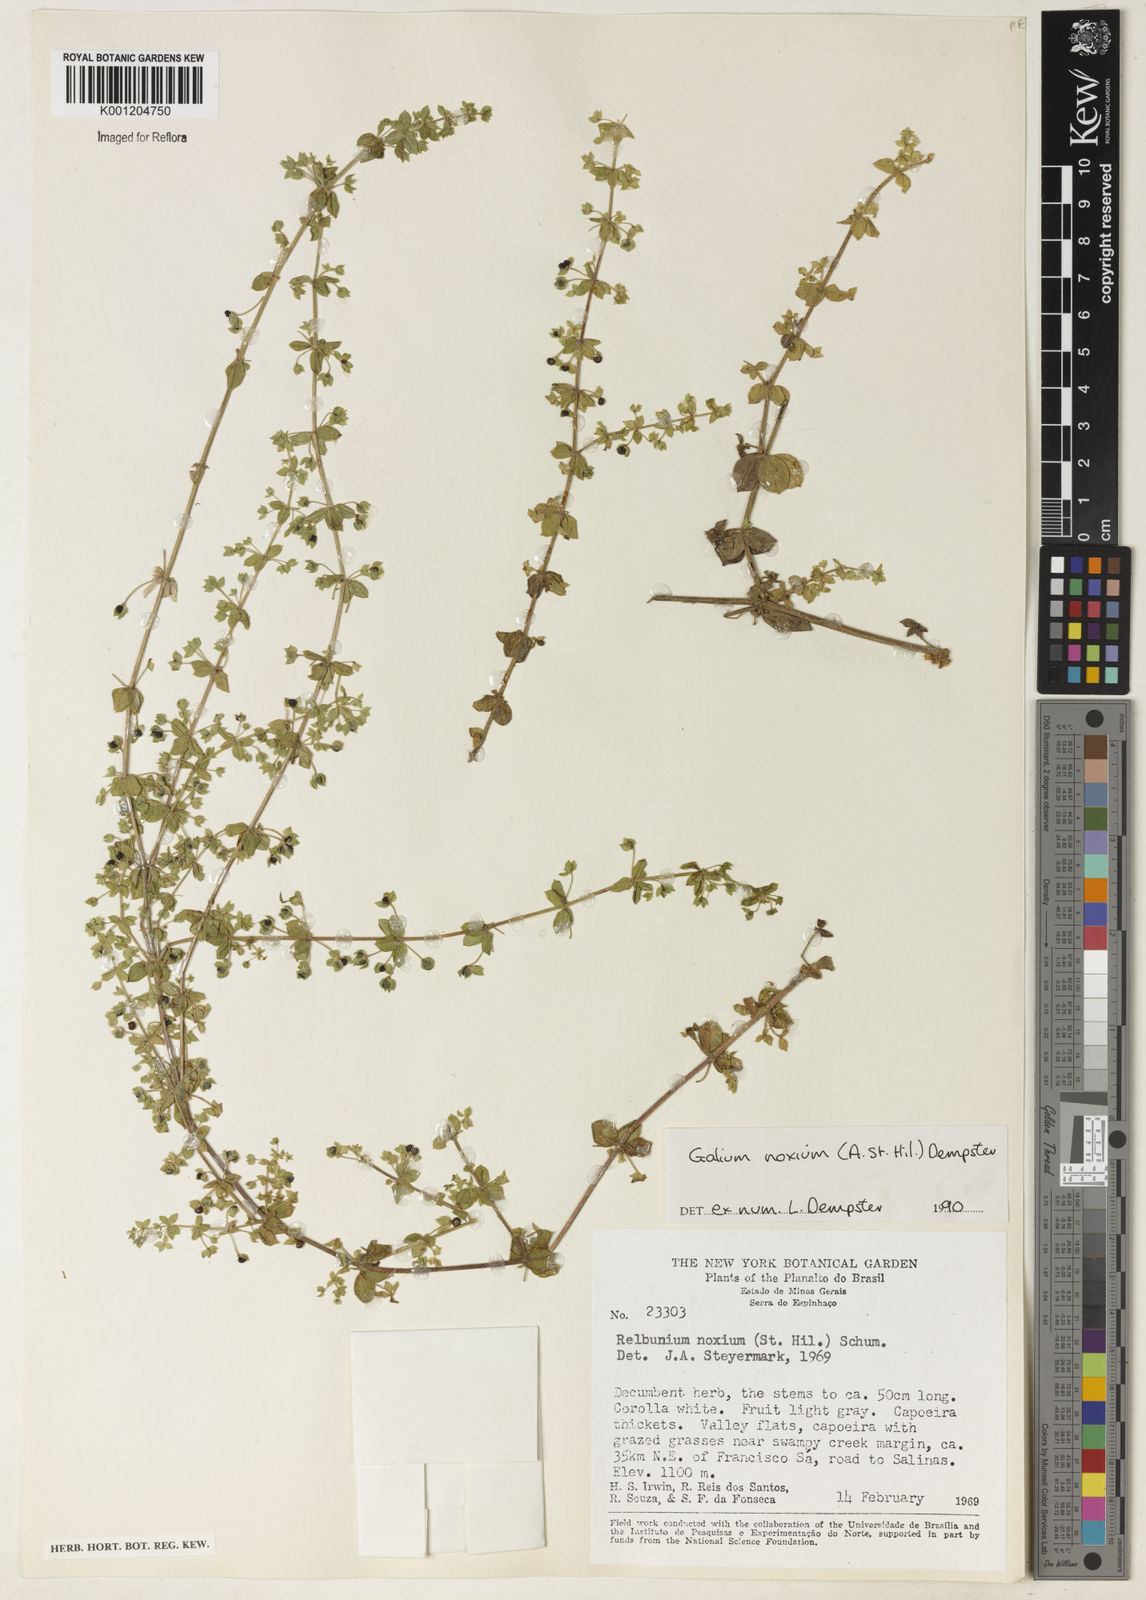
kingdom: Plantae
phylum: Tracheophyta
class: Magnoliopsida
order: Gentianales
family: Rubiaceae
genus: Galium
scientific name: Galium noxium
